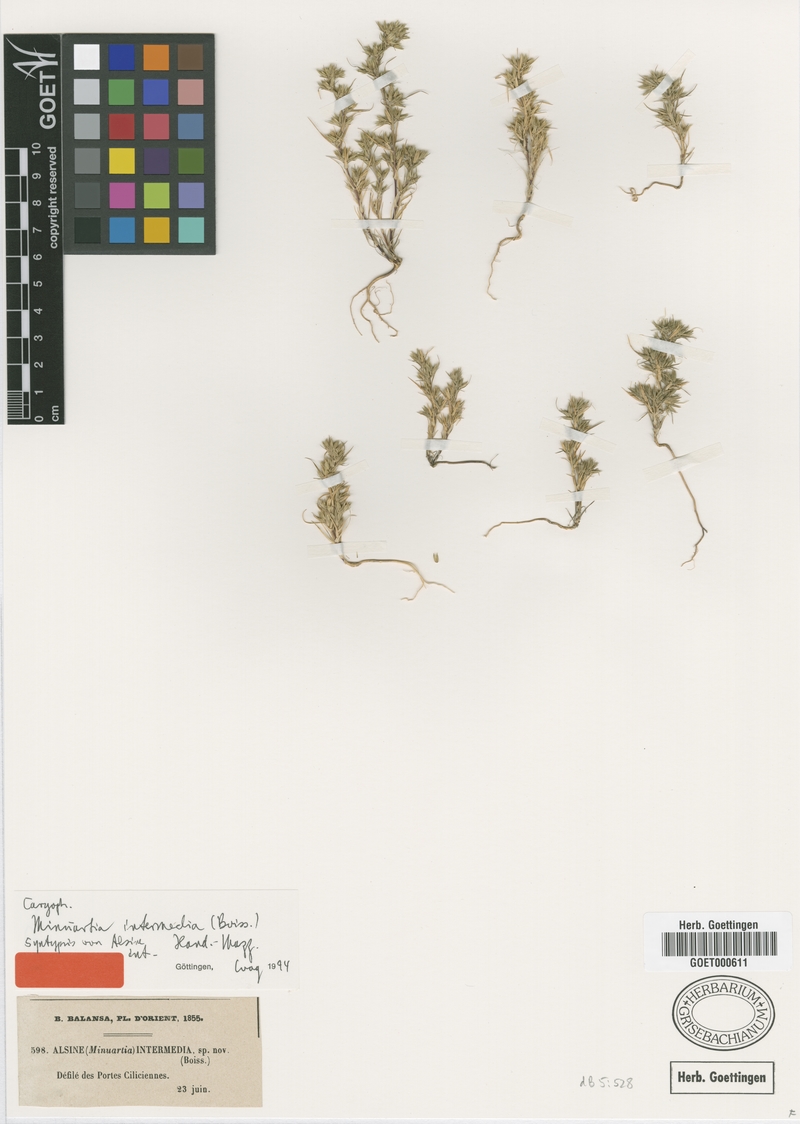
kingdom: Plantae
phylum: Tracheophyta
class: Magnoliopsida
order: Caryophyllales
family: Caryophyllaceae
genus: Minuartia
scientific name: Minuartia intermedia
